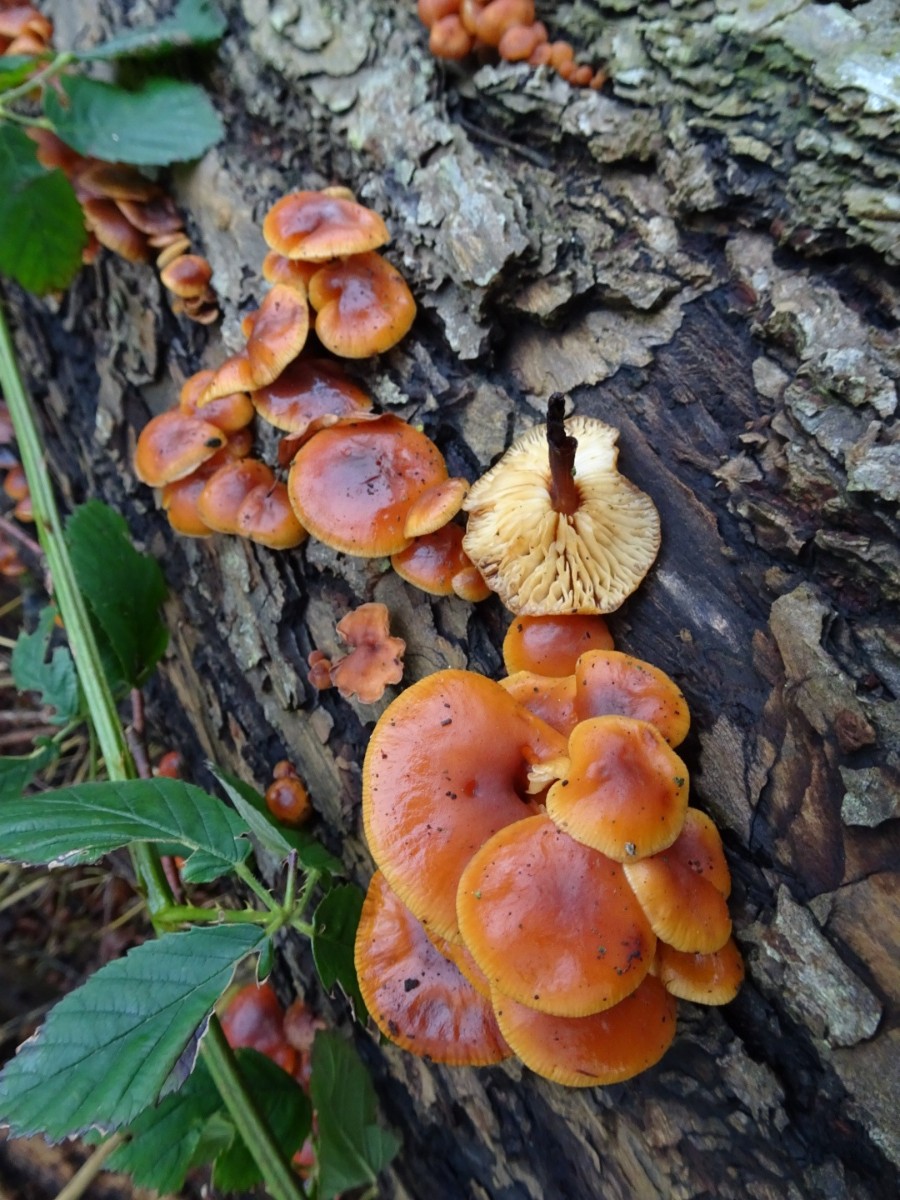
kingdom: Fungi
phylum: Basidiomycota
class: Agaricomycetes
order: Agaricales
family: Physalacriaceae
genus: Flammulina
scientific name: Flammulina velutipes
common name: gul fløjlsfod
